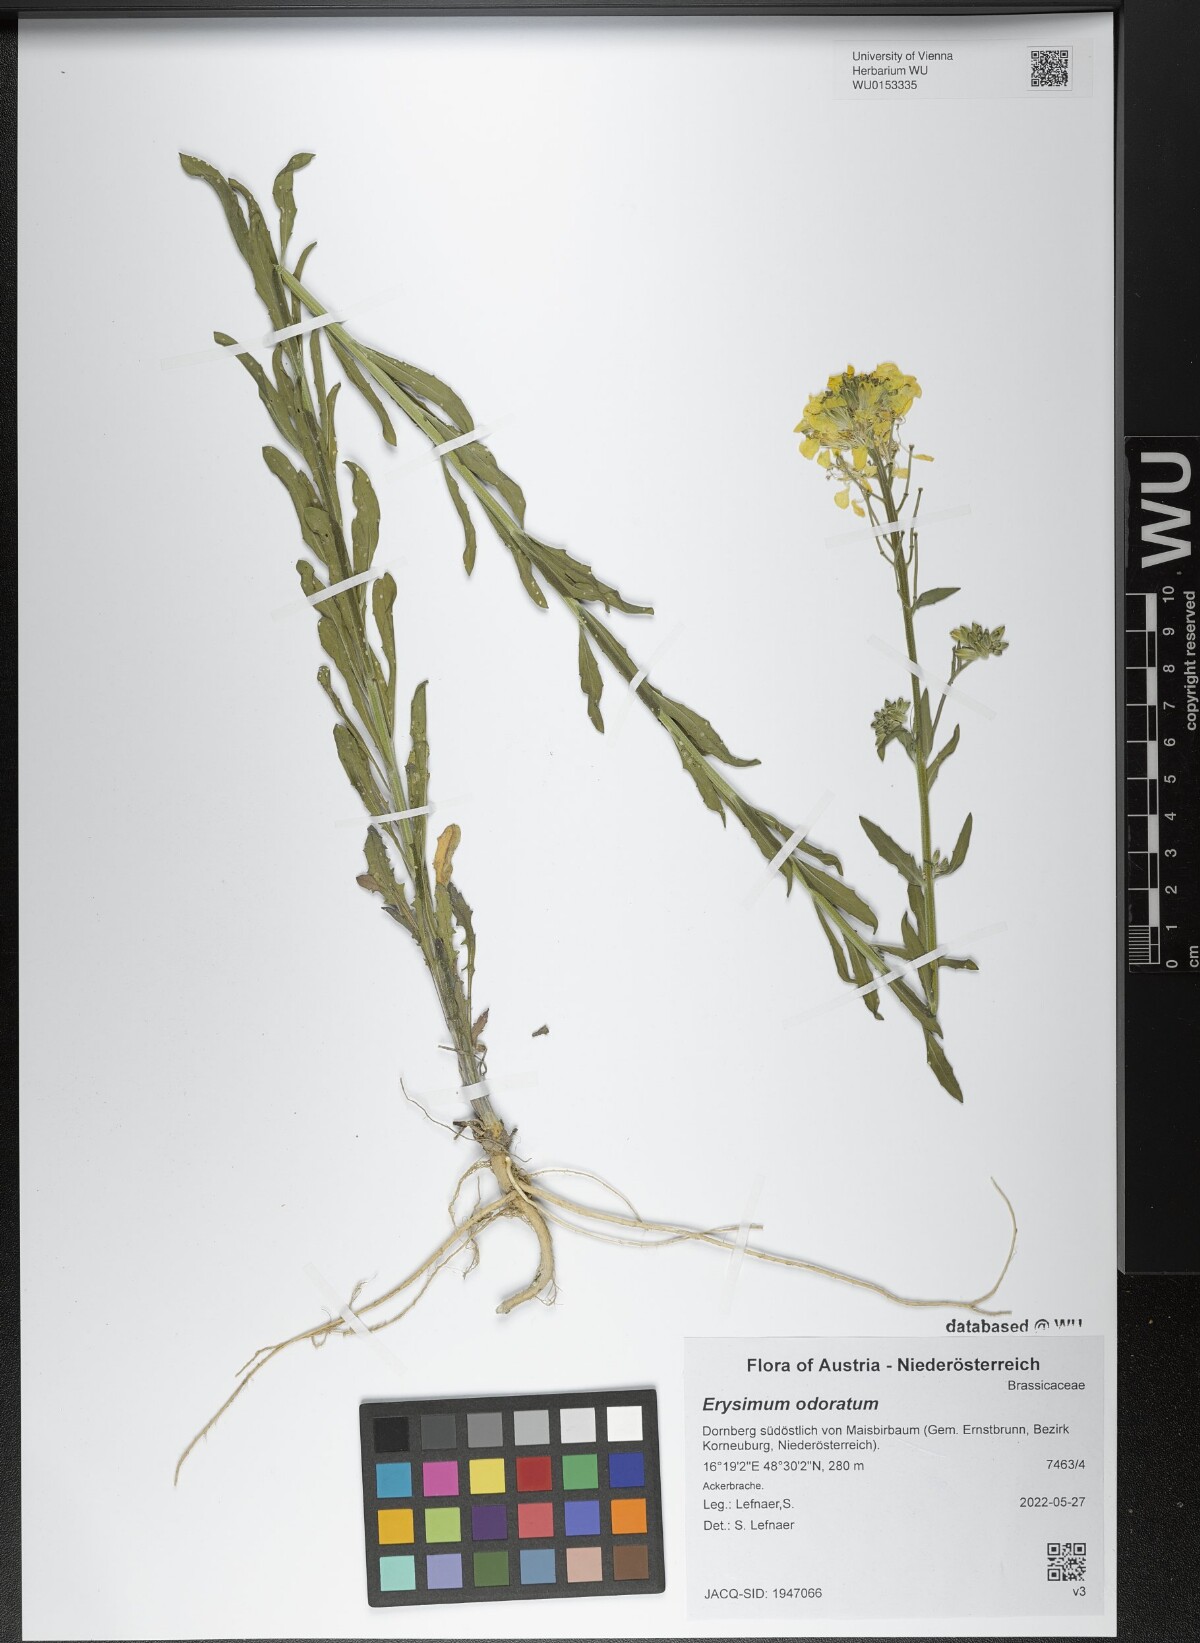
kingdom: Plantae
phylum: Tracheophyta
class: Magnoliopsida
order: Brassicales
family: Brassicaceae
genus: Erysimum
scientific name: Erysimum odoratum
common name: Smelly wallflower
